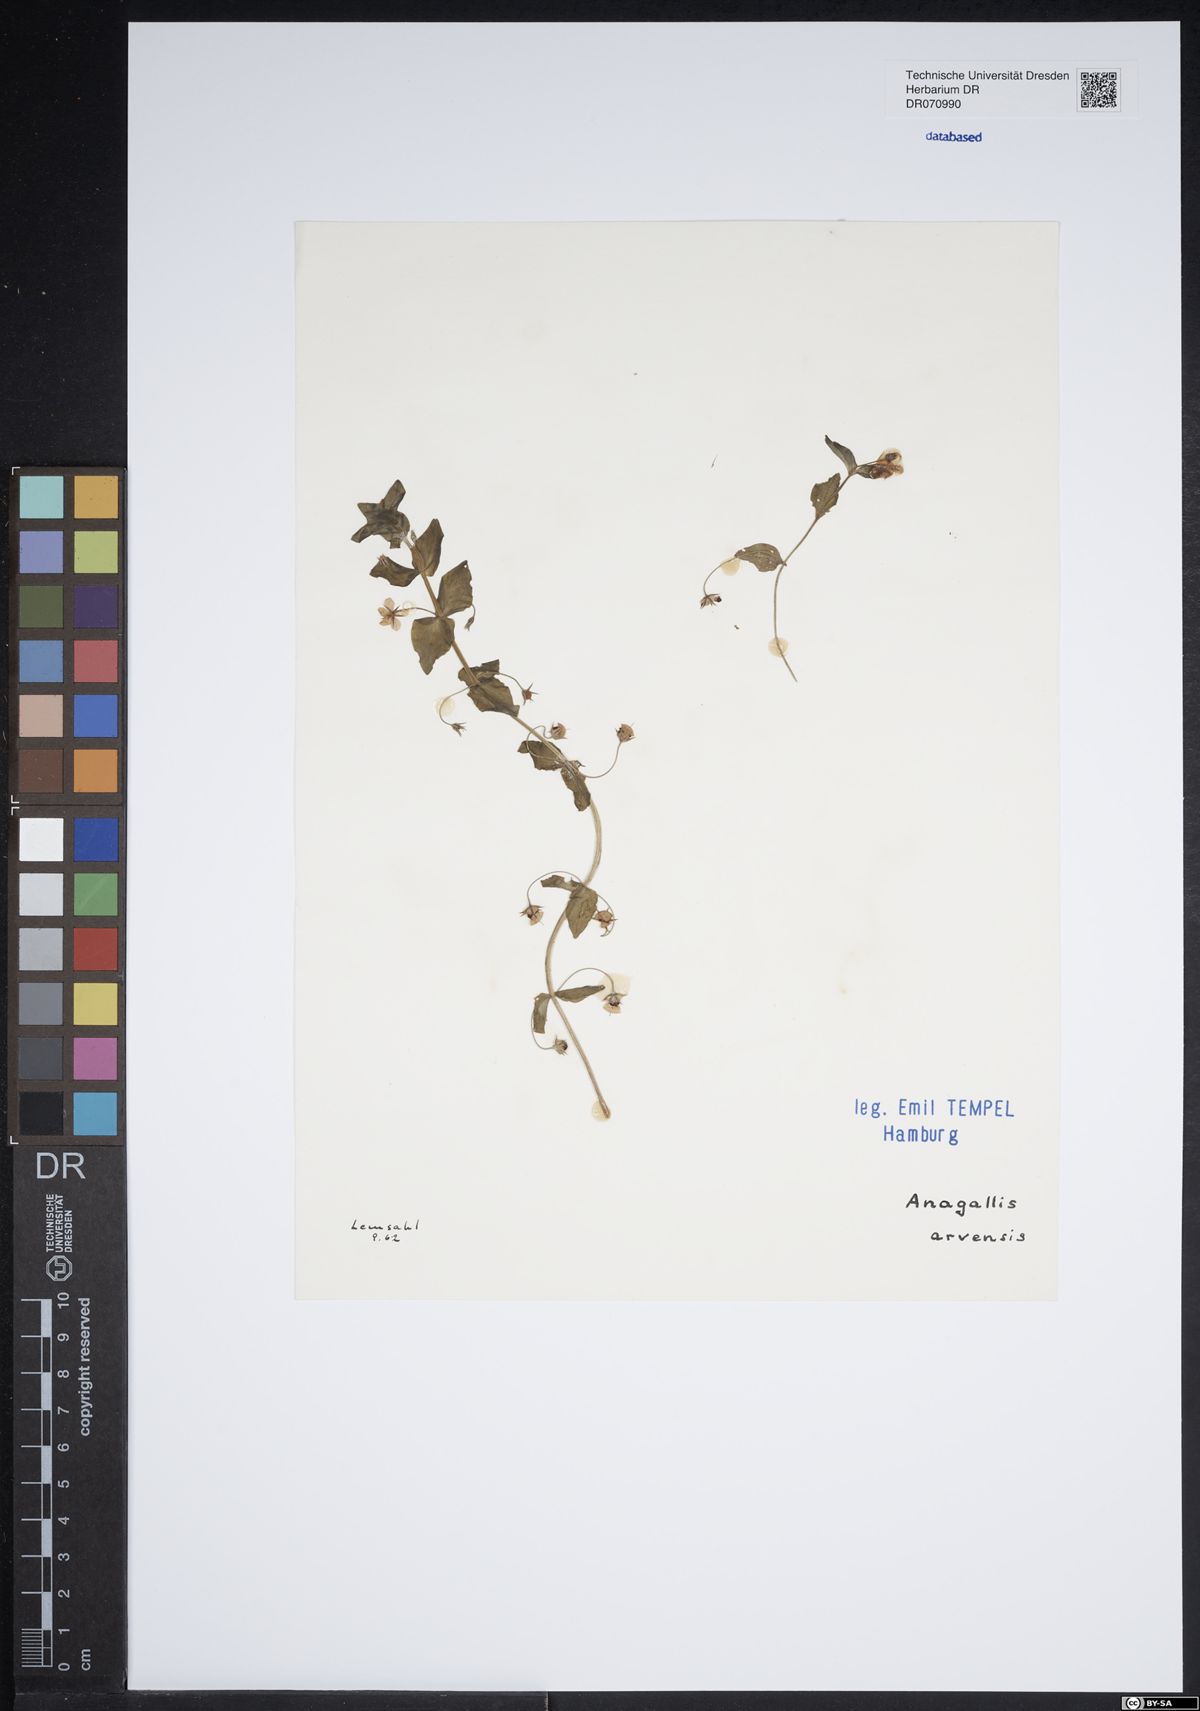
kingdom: Plantae
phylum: Tracheophyta
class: Magnoliopsida
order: Ericales
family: Primulaceae
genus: Lysimachia
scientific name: Lysimachia arvensis
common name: Scarlet pimpernel
